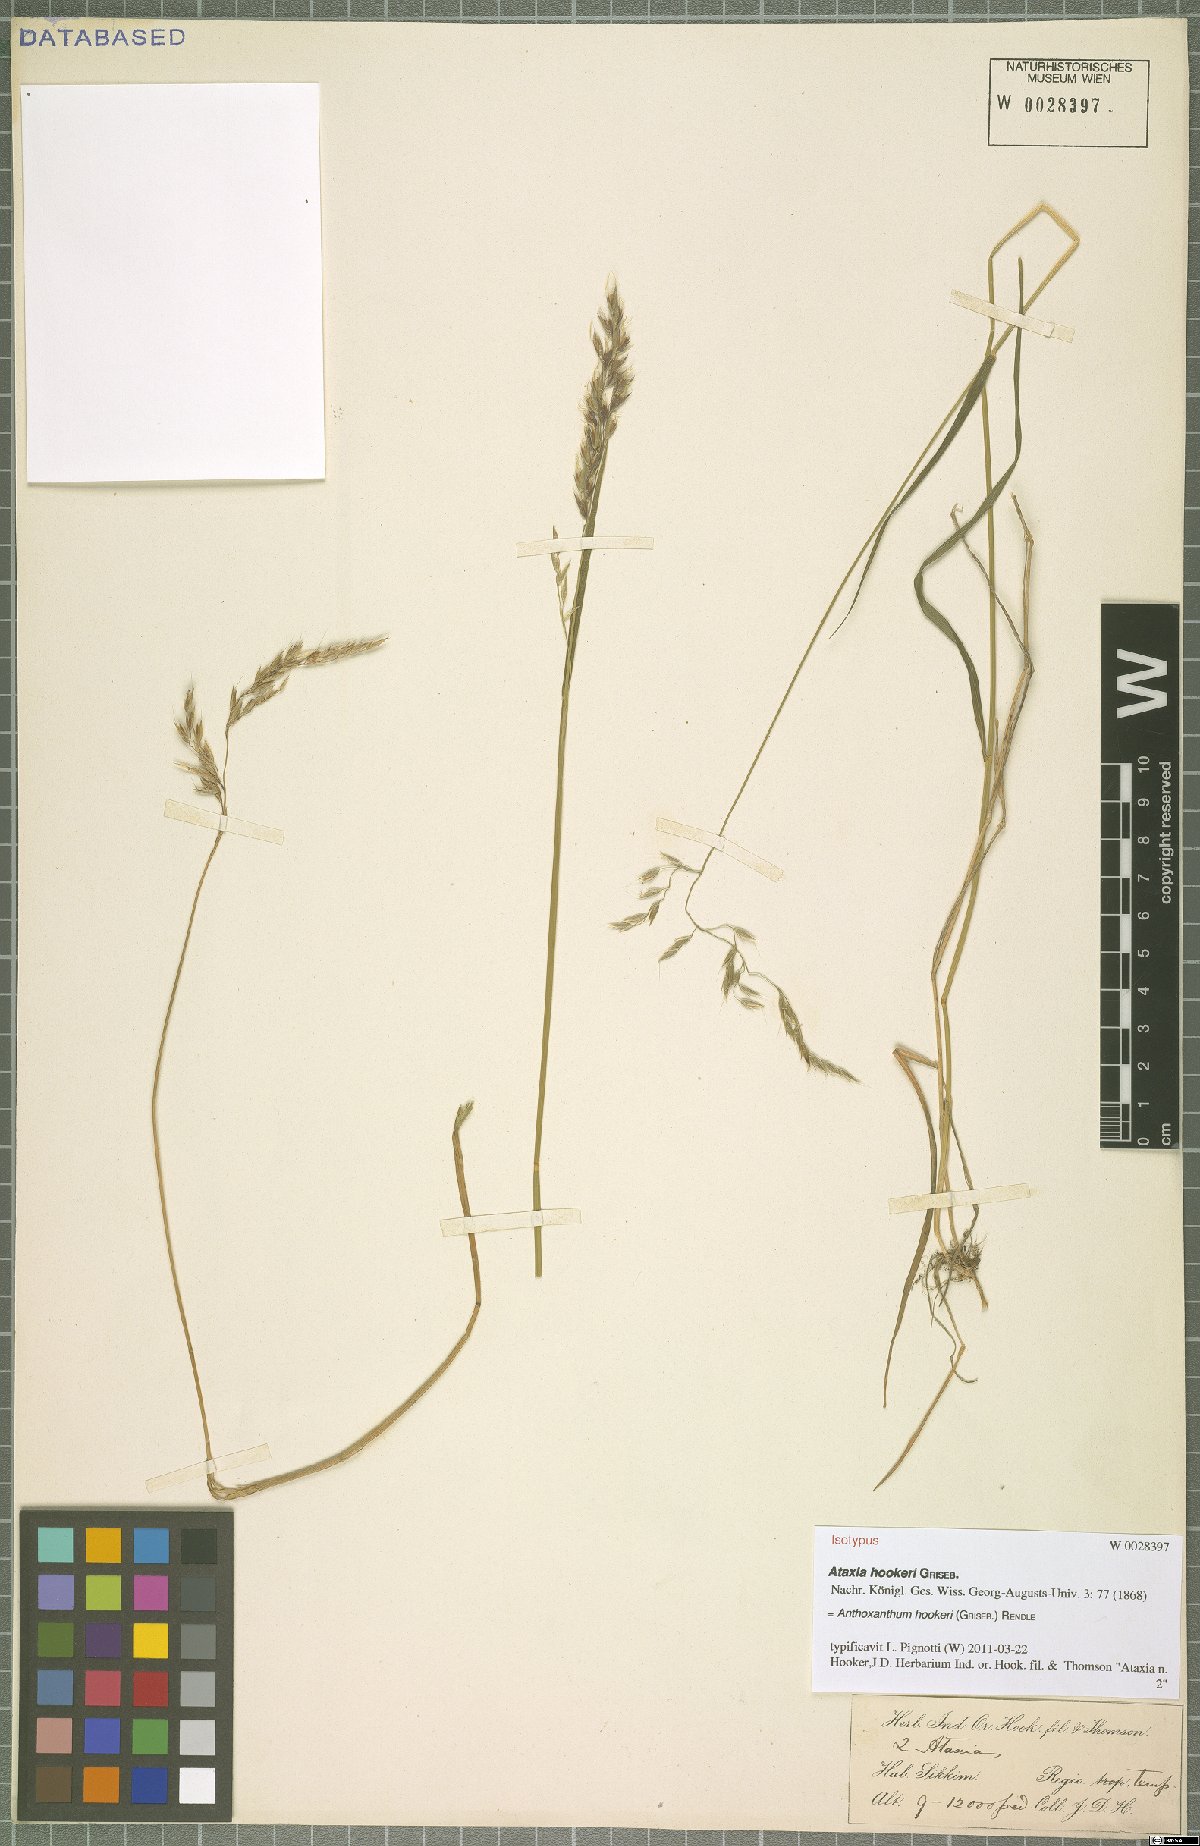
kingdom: Plantae
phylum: Tracheophyta
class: Liliopsida
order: Poales
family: Poaceae
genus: Anthoxanthum
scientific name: Anthoxanthum hookeri
